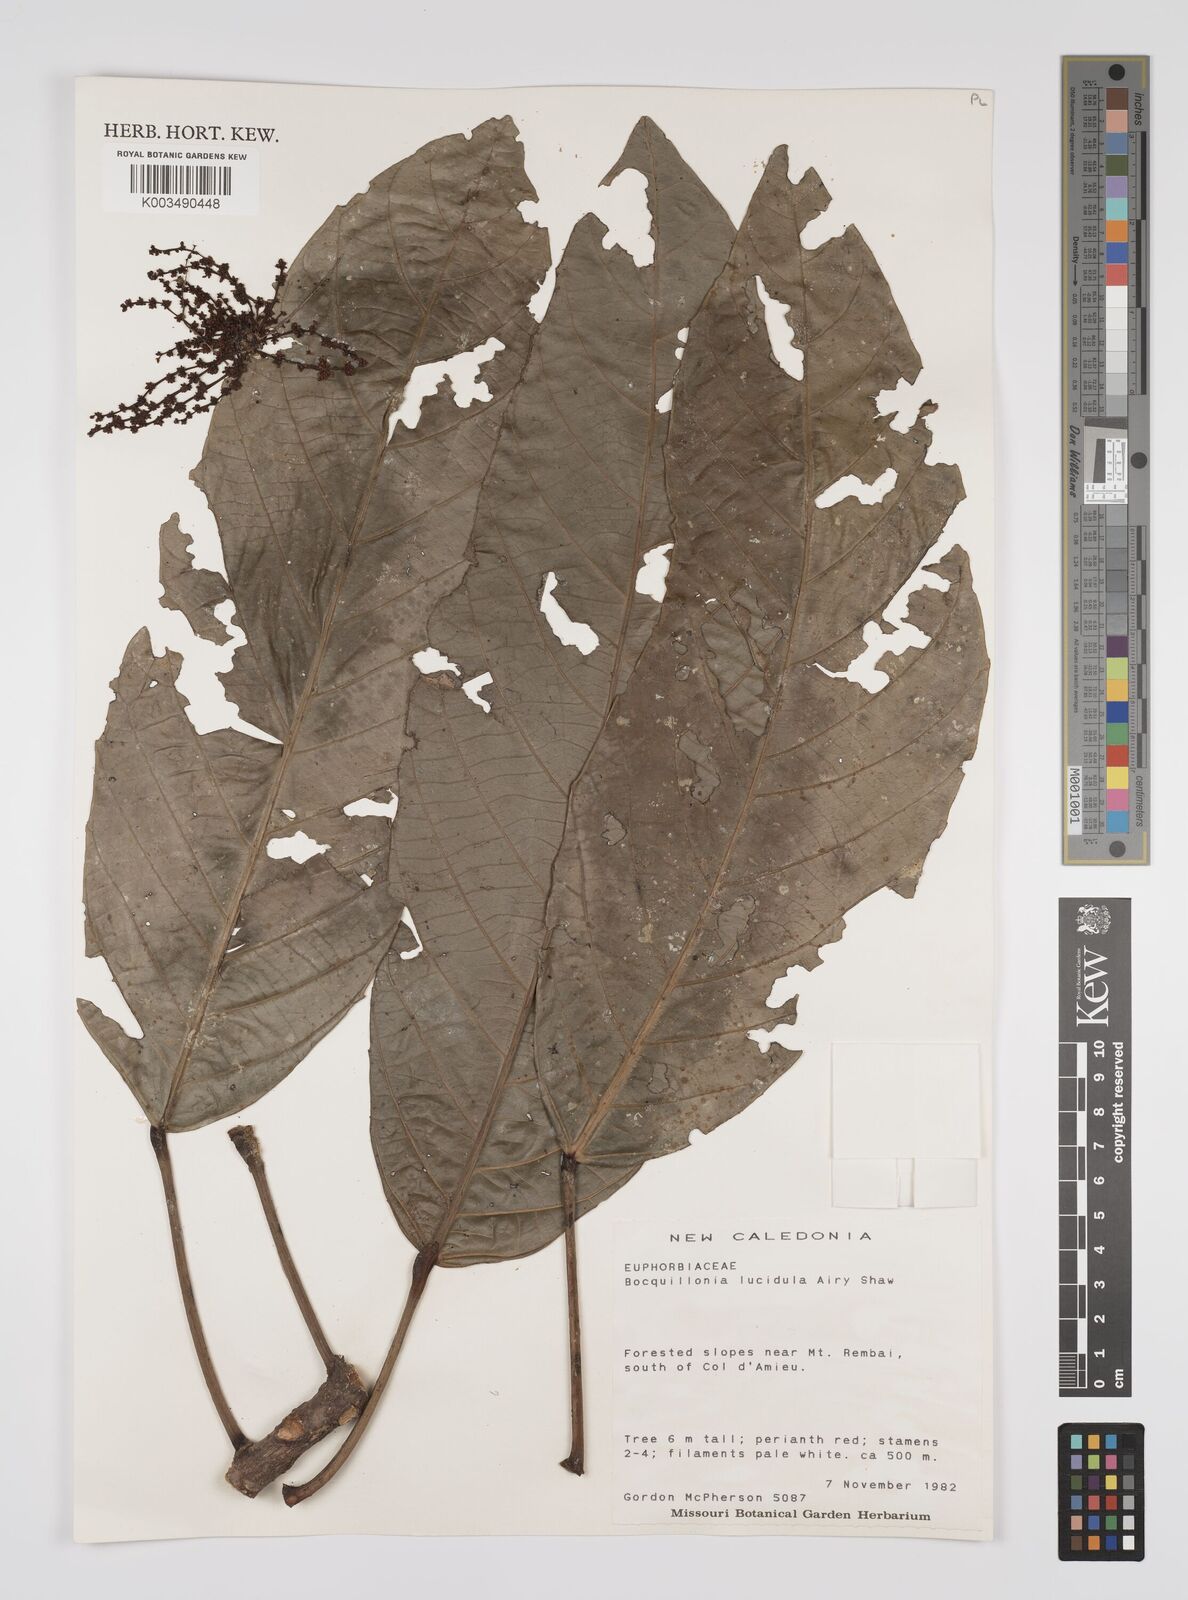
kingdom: Plantae
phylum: Tracheophyta
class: Magnoliopsida
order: Malpighiales
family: Euphorbiaceae
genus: Bocquillonia
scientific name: Bocquillonia lucidula
